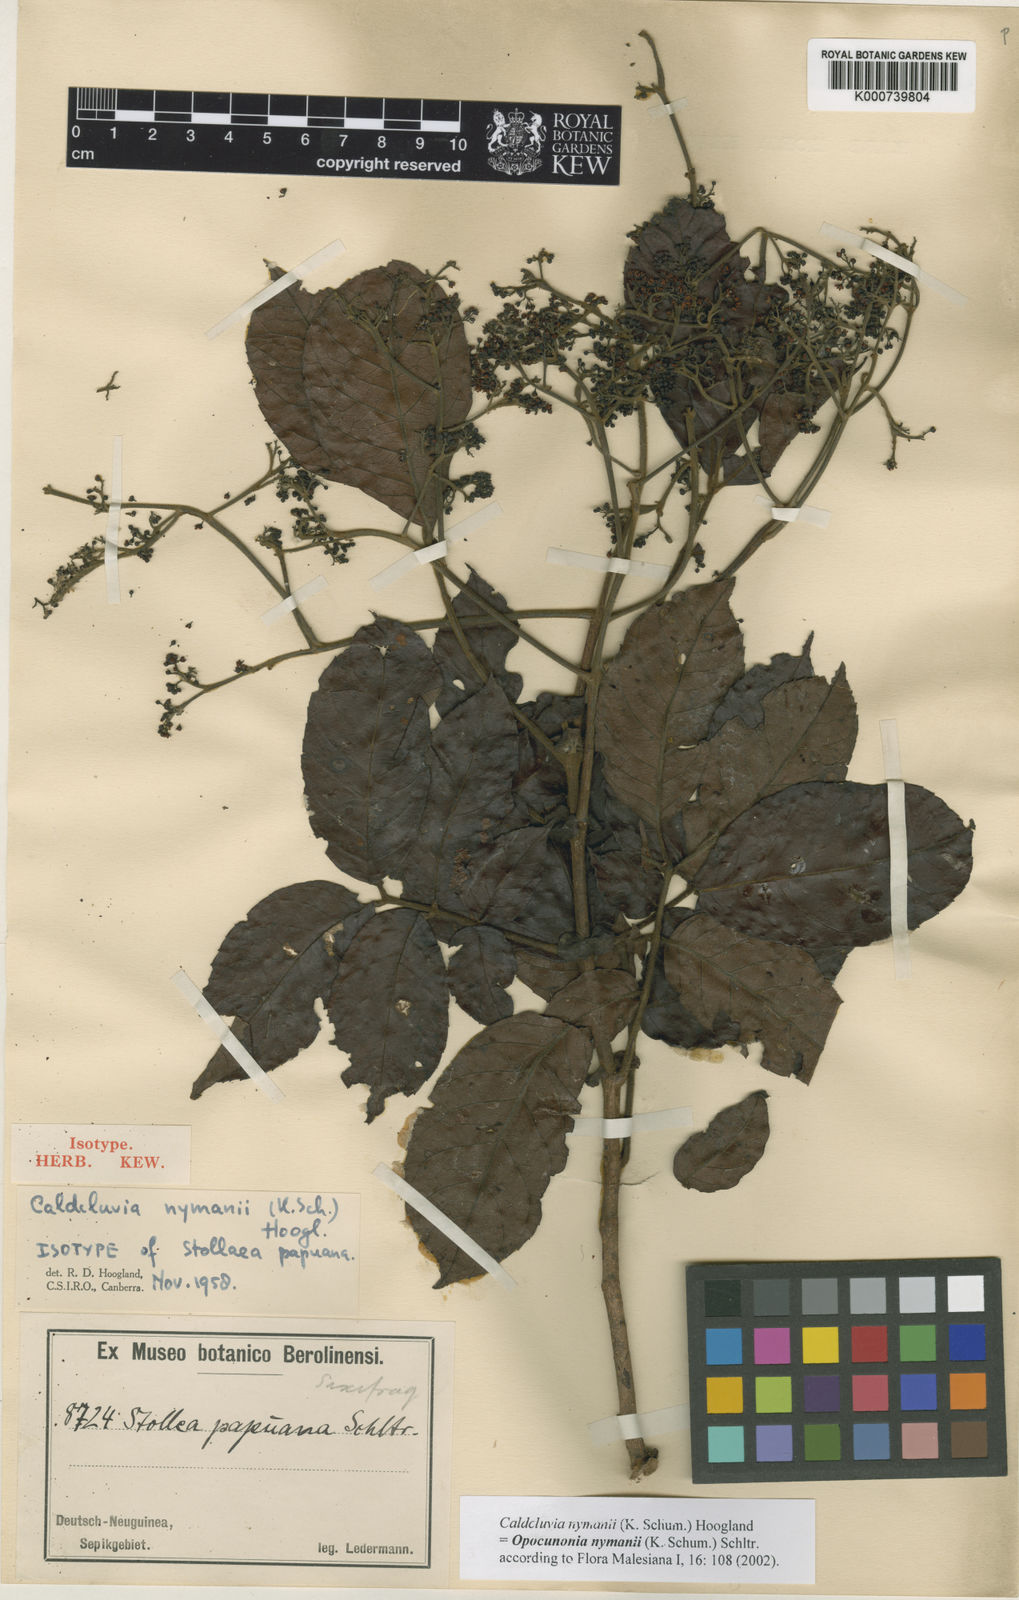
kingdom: Plantae
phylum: Tracheophyta
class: Magnoliopsida
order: Oxalidales
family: Cunoniaceae
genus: Opocunonia
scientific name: Opocunonia nymanii
